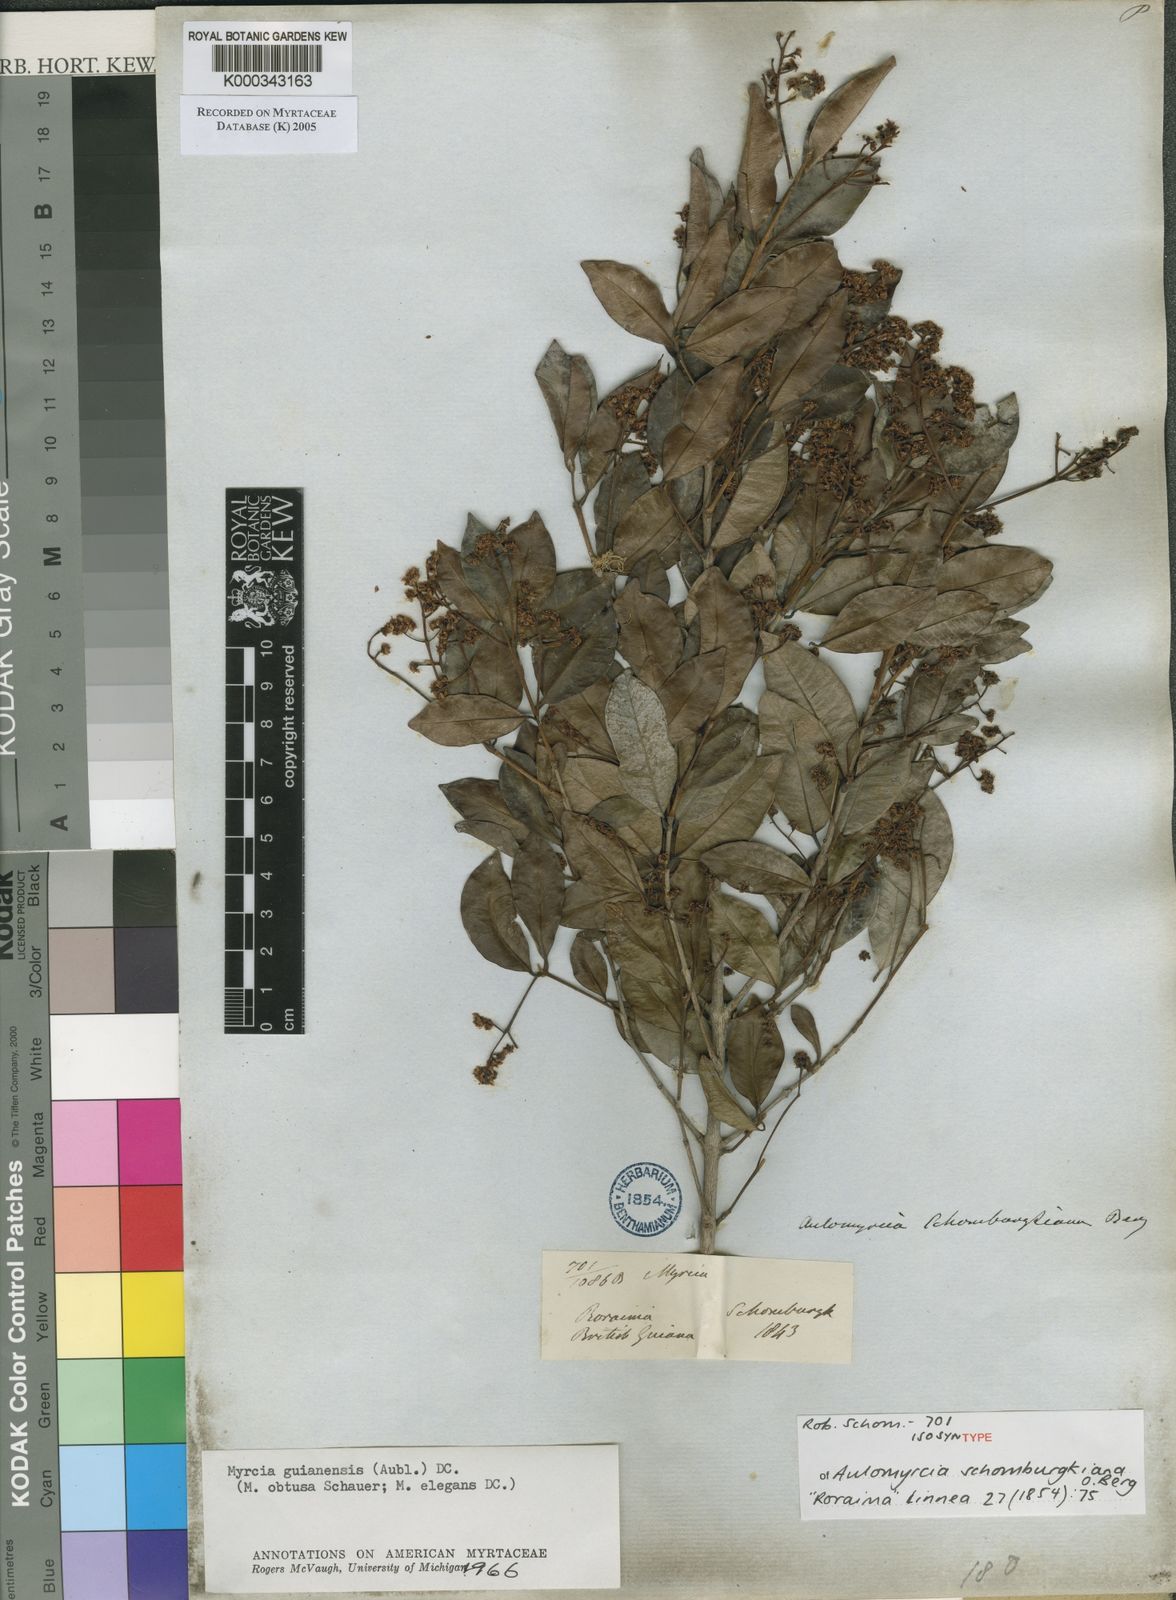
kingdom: Plantae
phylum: Tracheophyta
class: Magnoliopsida
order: Myrtales
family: Myrtaceae
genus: Myrcia
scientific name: Myrcia guianensis
